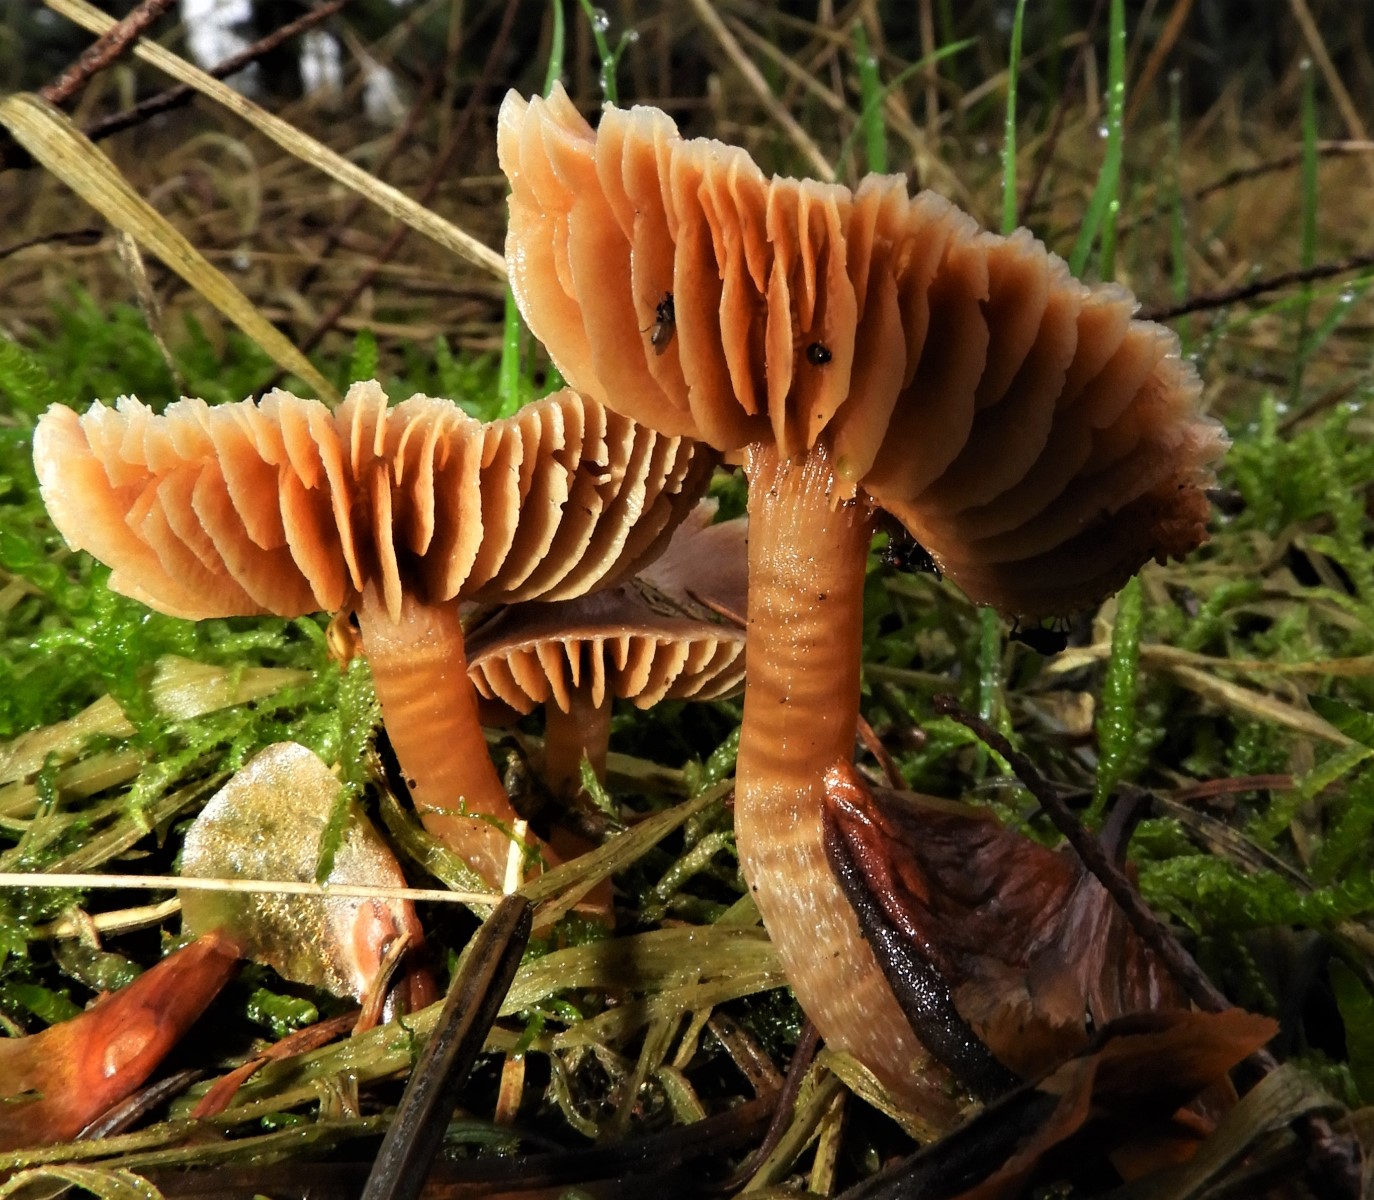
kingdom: Fungi
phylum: Basidiomycota
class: Agaricomycetes
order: Agaricales
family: Cortinariaceae
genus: Cortinarius
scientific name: Cortinarius
